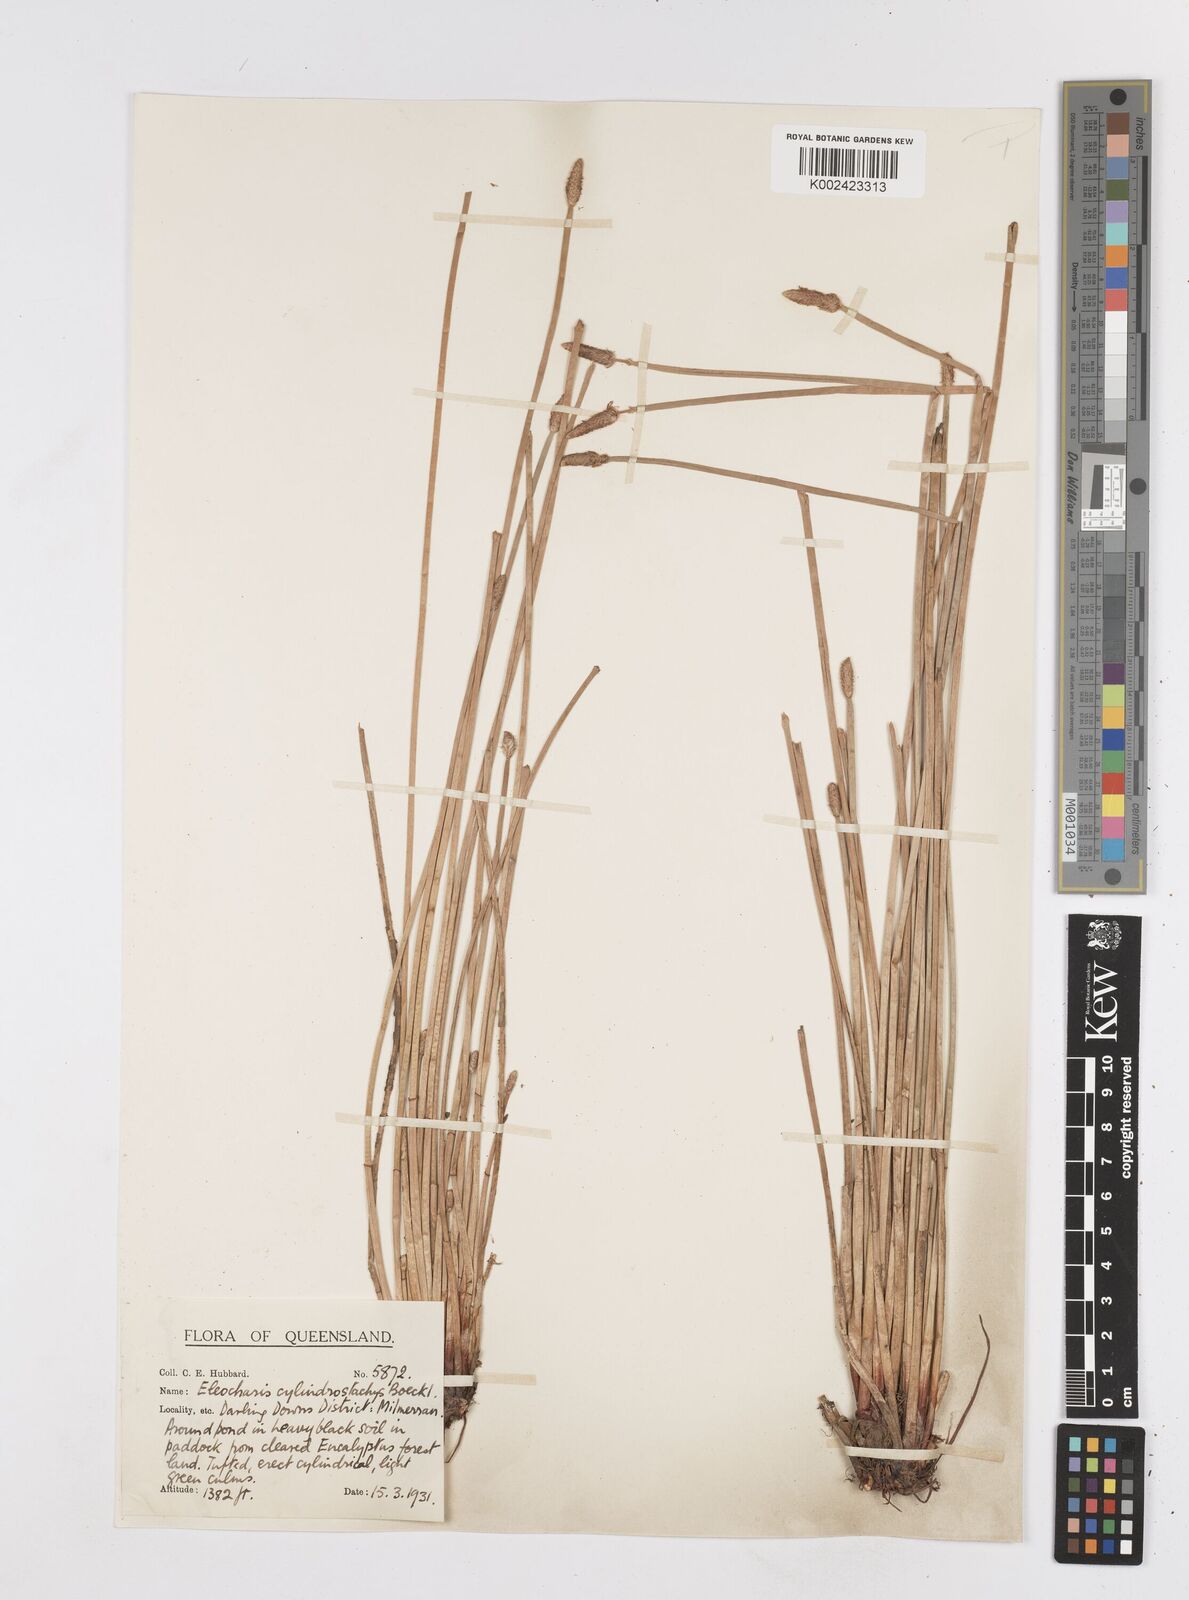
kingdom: Plantae
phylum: Tracheophyta
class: Liliopsida
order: Poales
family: Cyperaceae
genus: Eleocharis
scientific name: Eleocharis cylindrostachys
